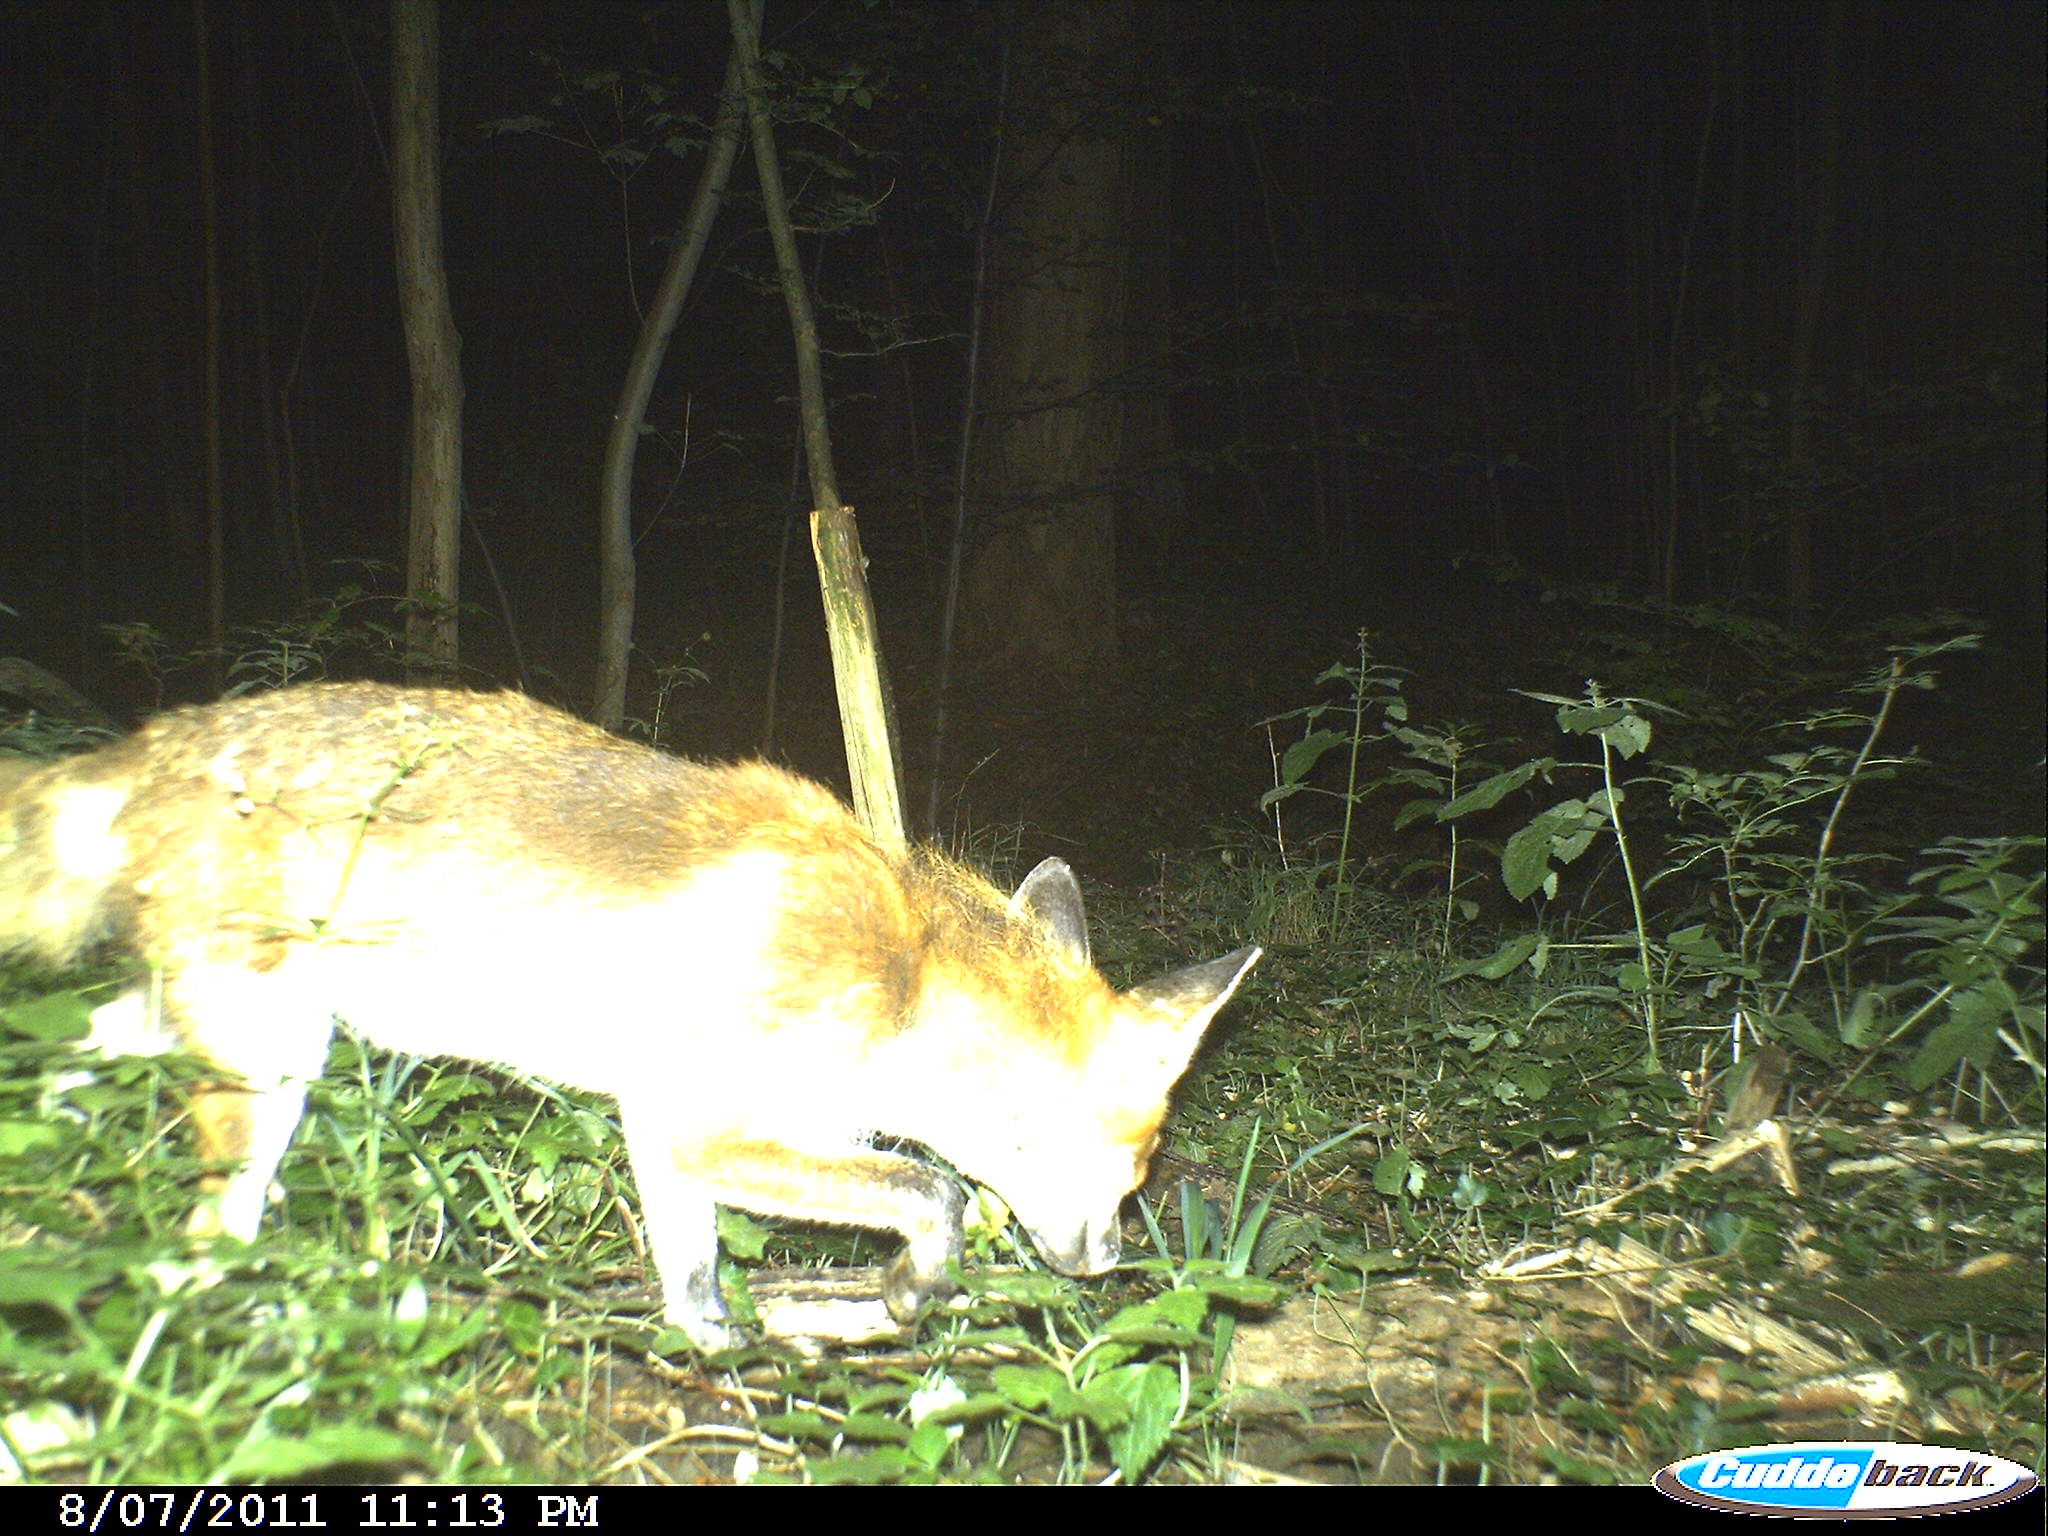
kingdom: Animalia
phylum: Chordata
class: Mammalia
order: Carnivora
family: Canidae
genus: Vulpes
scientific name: Vulpes vulpes
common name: Red fox
